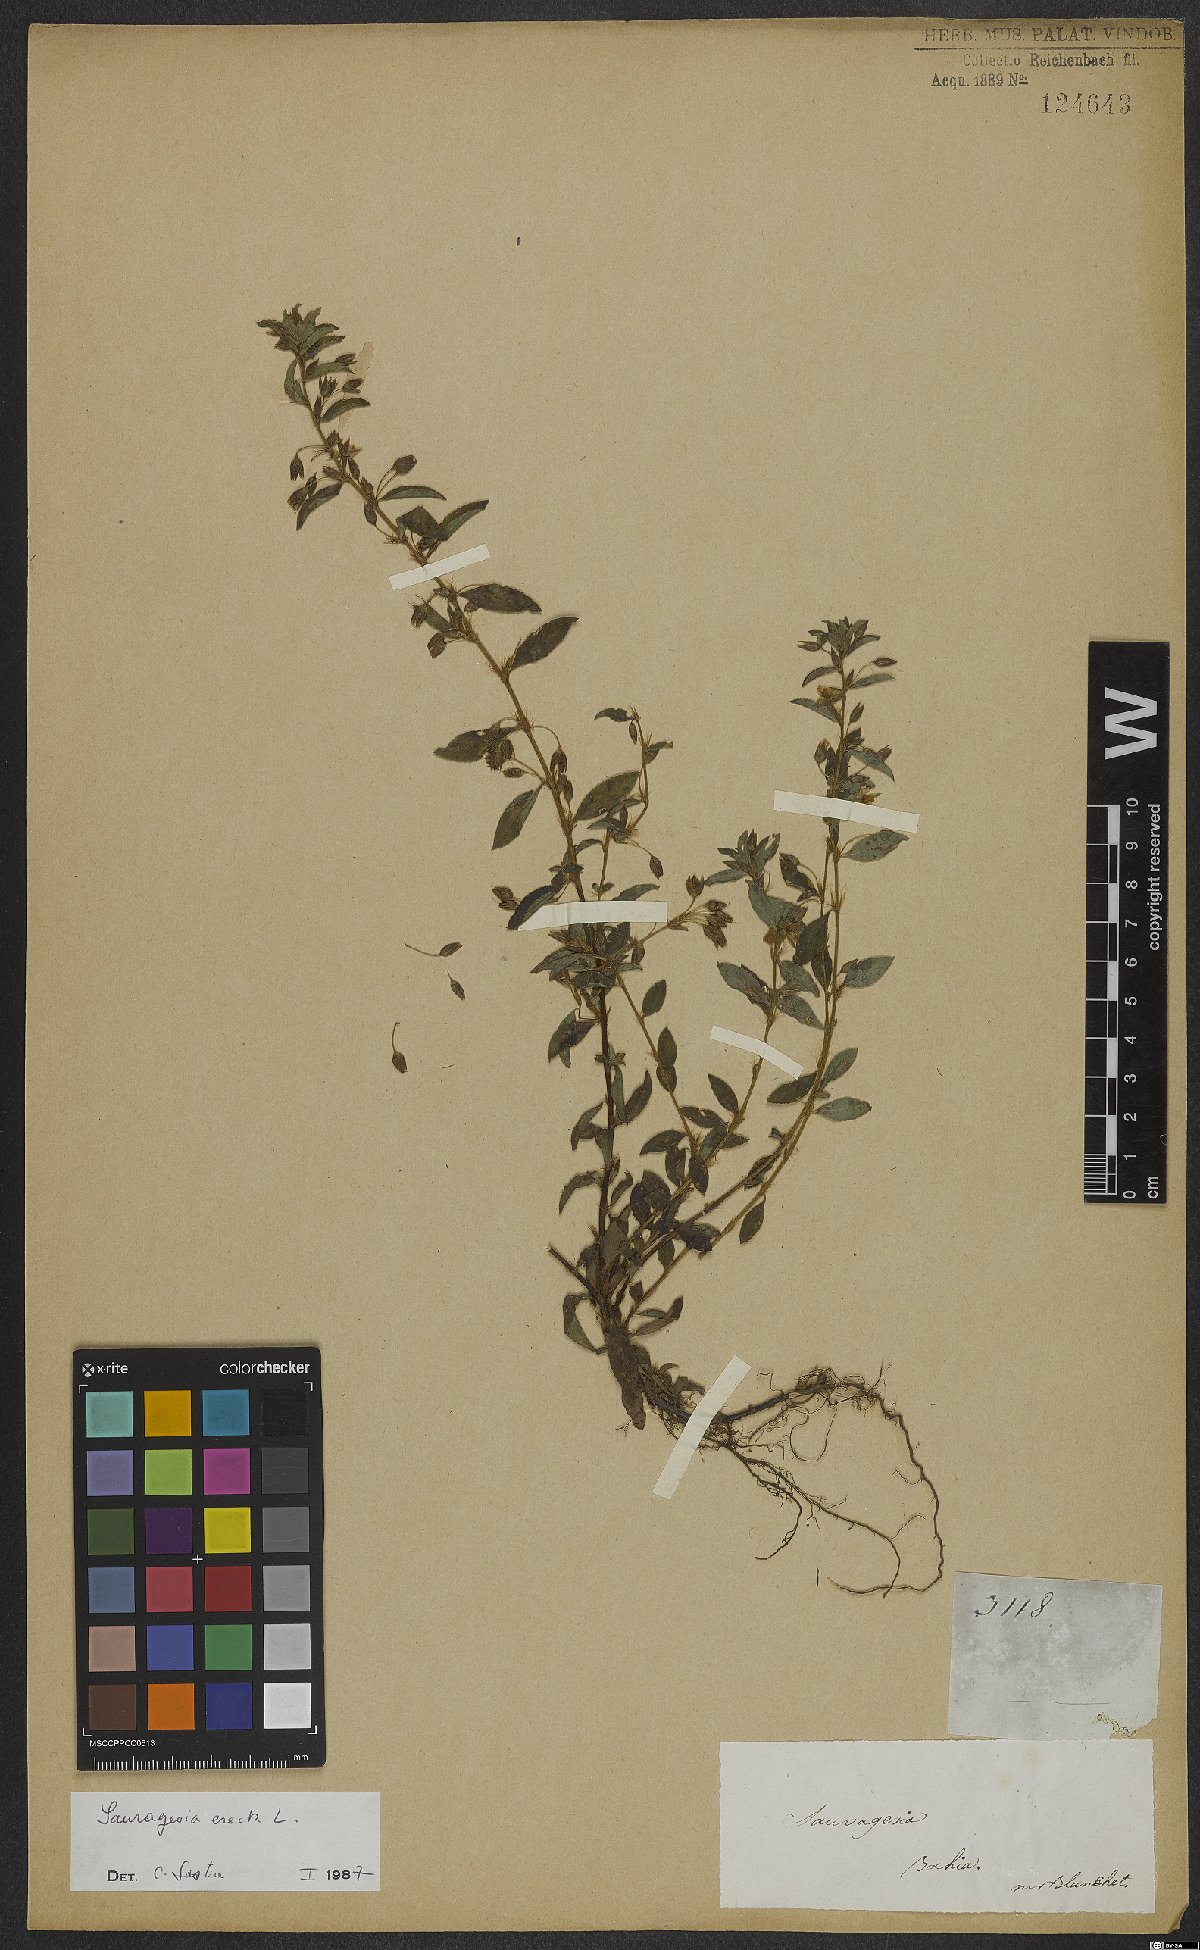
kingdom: Plantae
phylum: Tracheophyta
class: Magnoliopsida
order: Malpighiales
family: Ochnaceae
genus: Sauvagesia
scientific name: Sauvagesia elata
